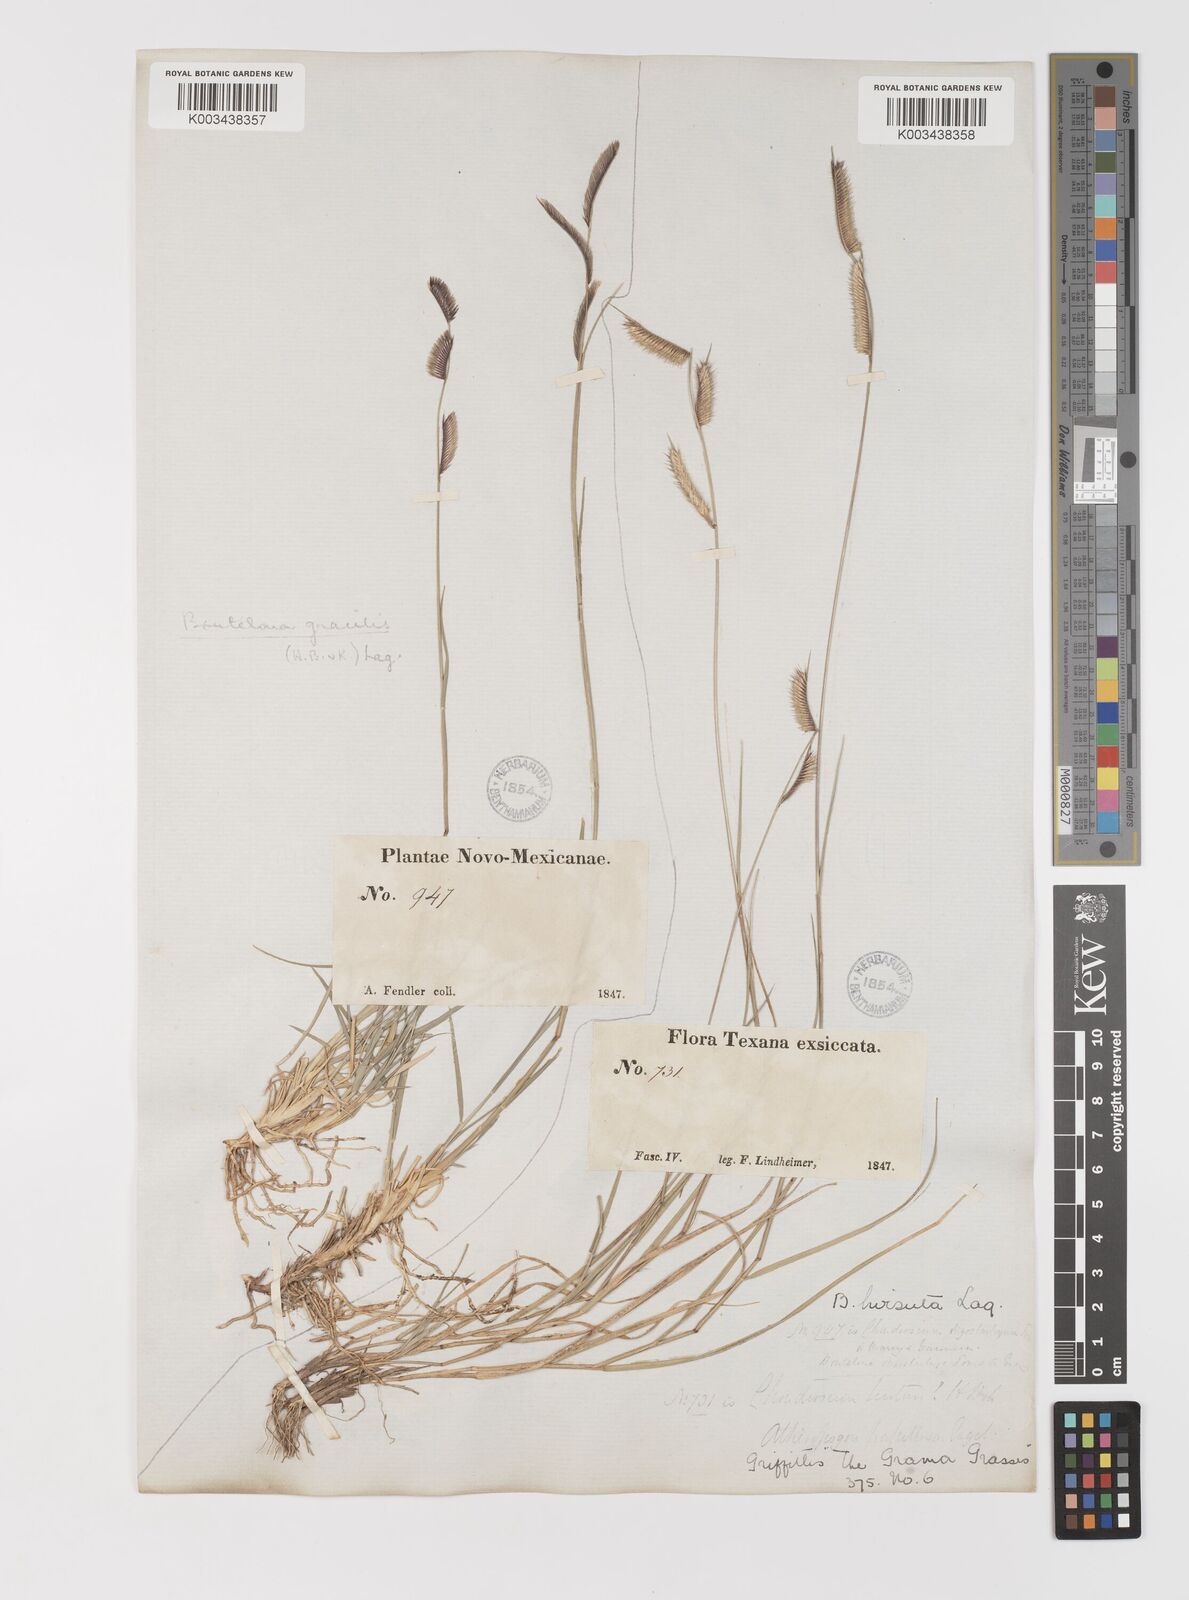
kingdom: Plantae
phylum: Tracheophyta
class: Liliopsida
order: Poales
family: Poaceae
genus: Bouteloua
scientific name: Bouteloua hirsuta
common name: Hairy grama
